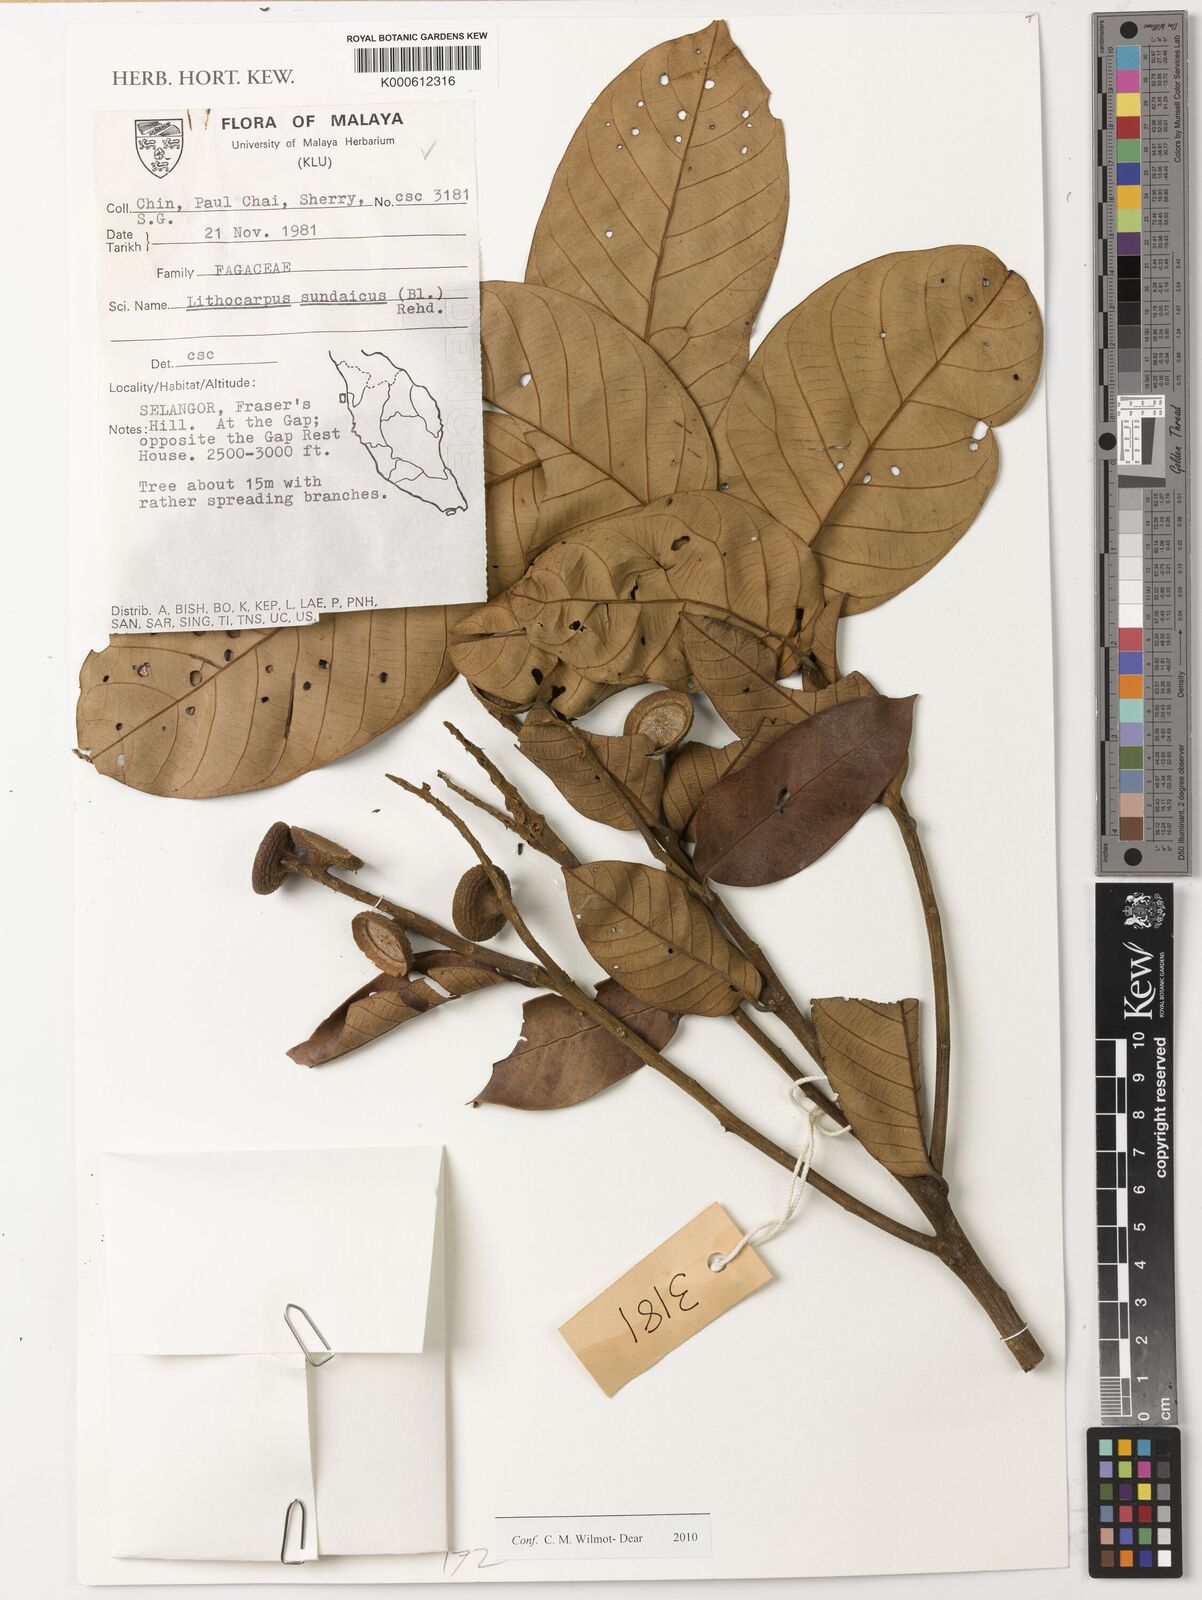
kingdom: Plantae
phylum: Tracheophyta
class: Magnoliopsida
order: Fagales
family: Fagaceae
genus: Lithocarpus
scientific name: Lithocarpus sundaicus
